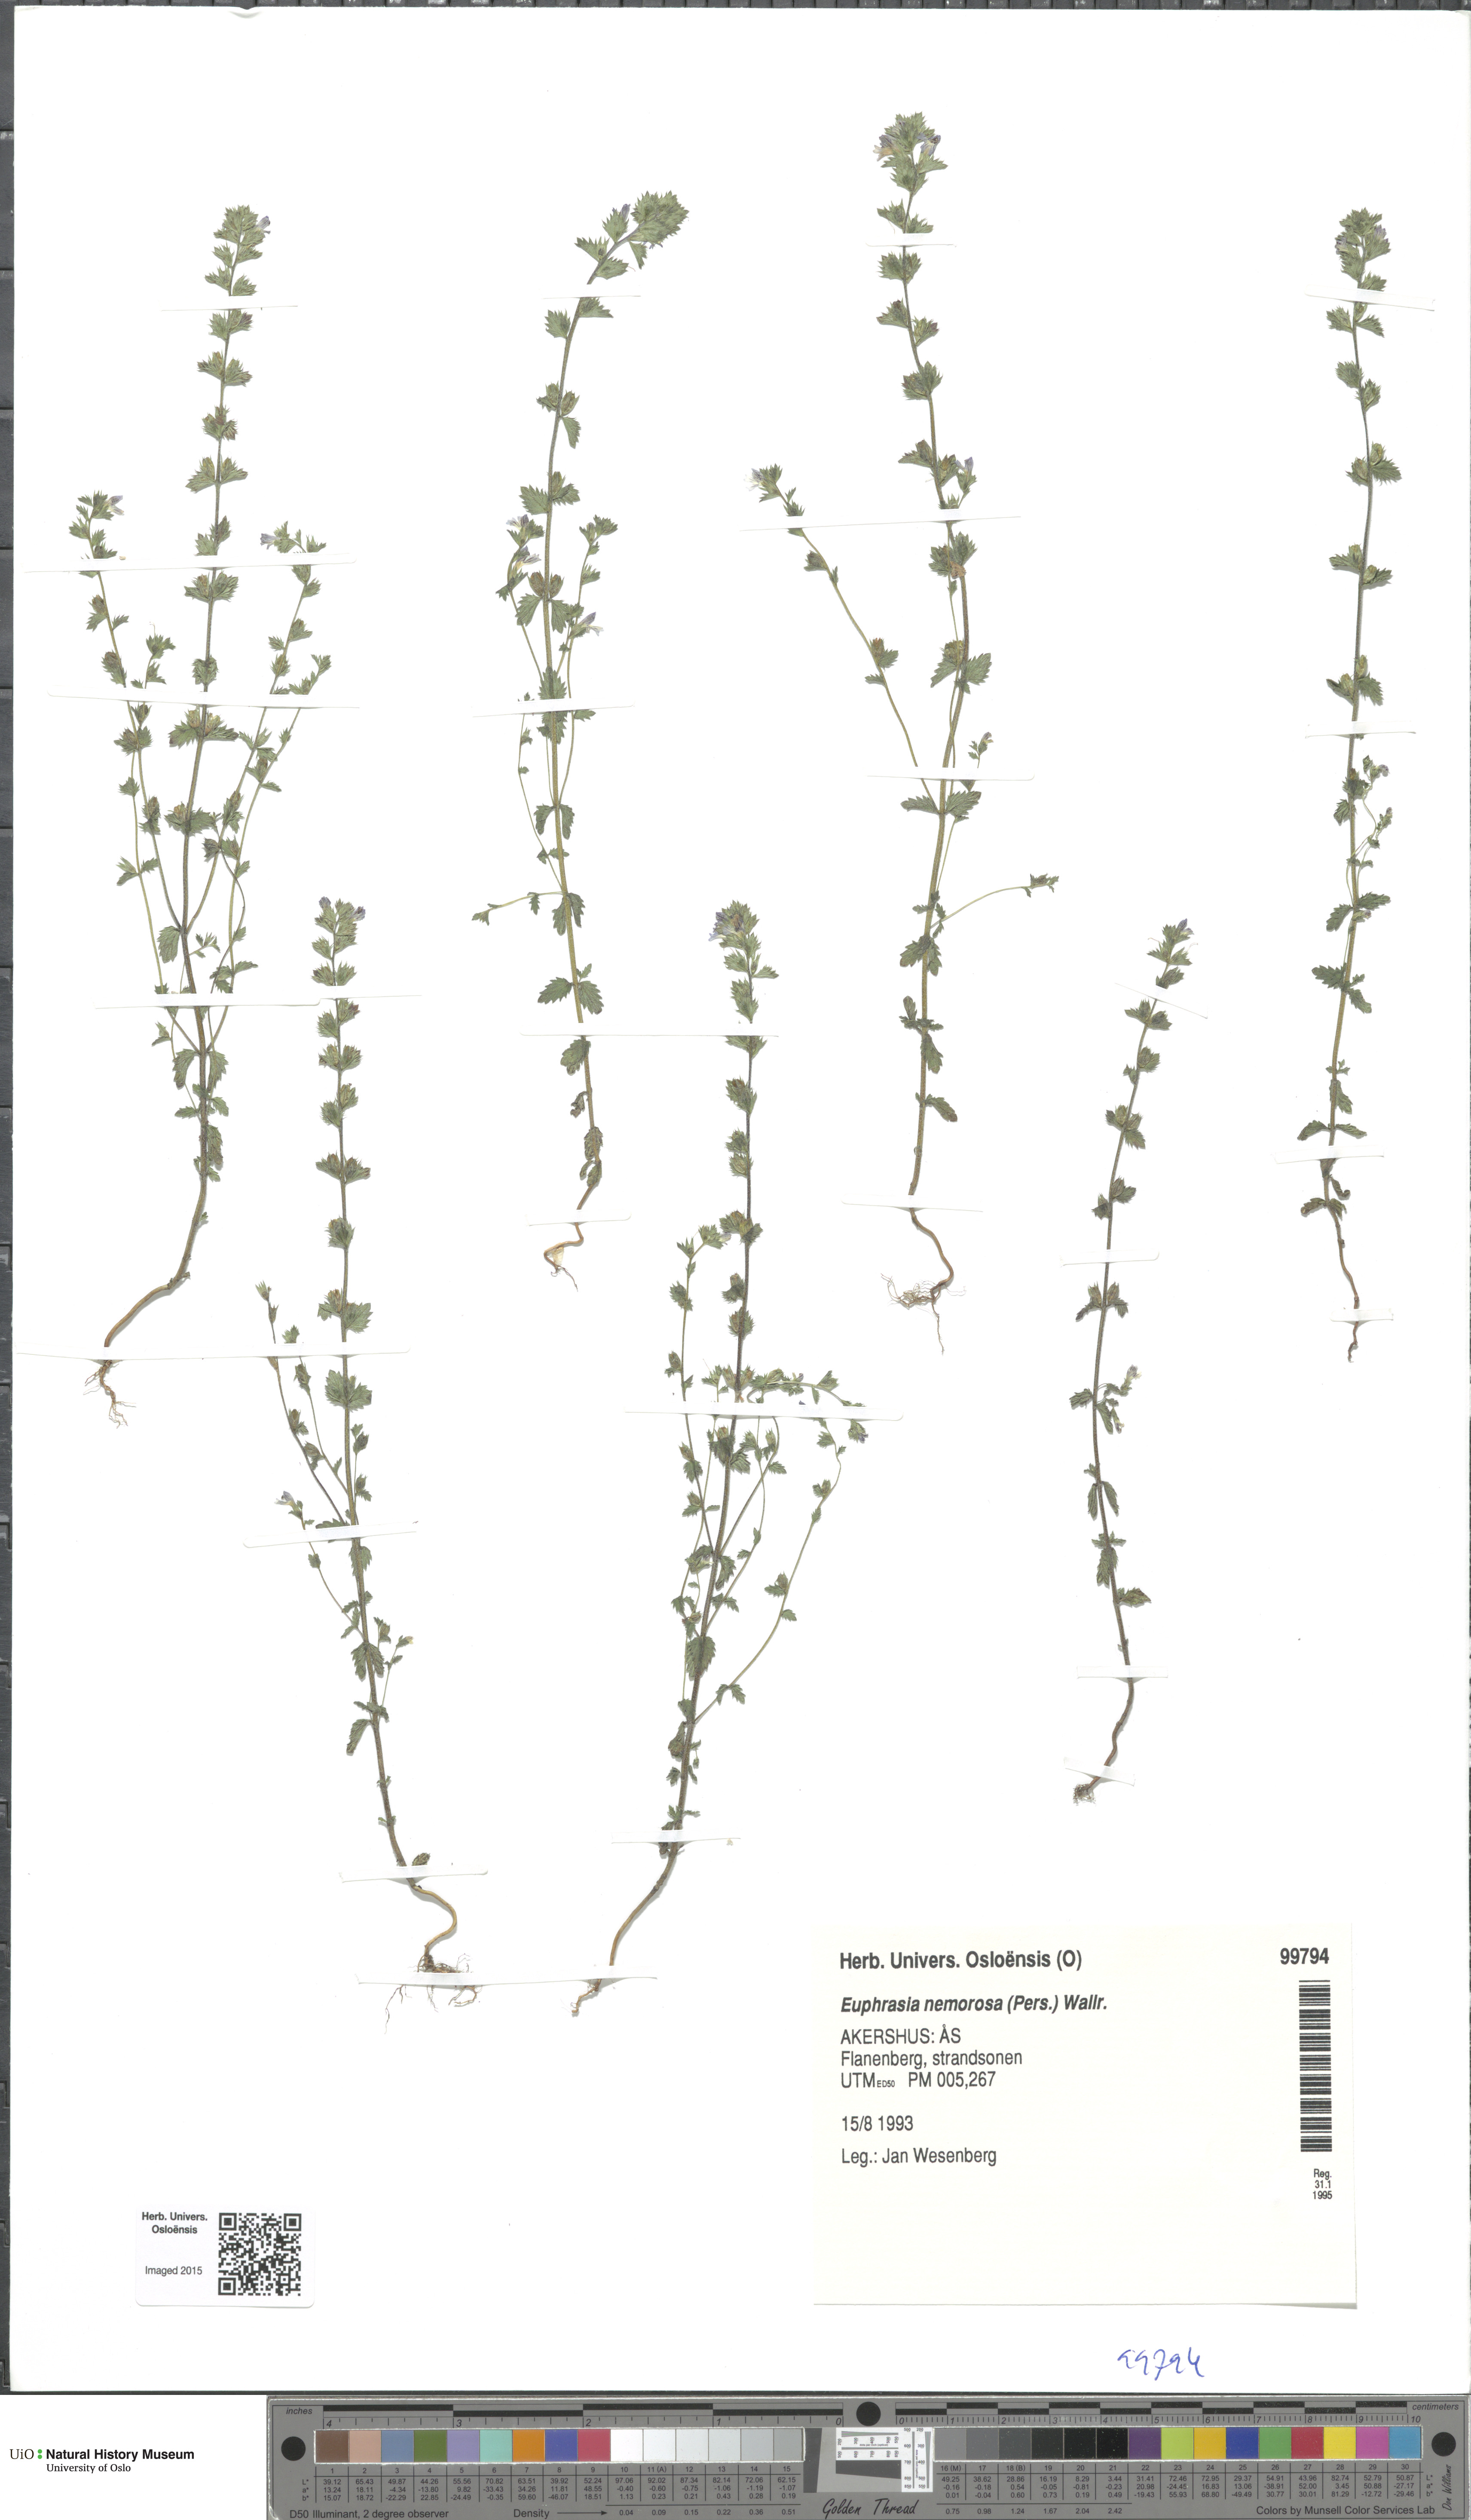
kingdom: Plantae
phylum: Tracheophyta
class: Magnoliopsida
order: Lamiales
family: Orobanchaceae
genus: Euphrasia
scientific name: Euphrasia nemorosa
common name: Common eyebright
